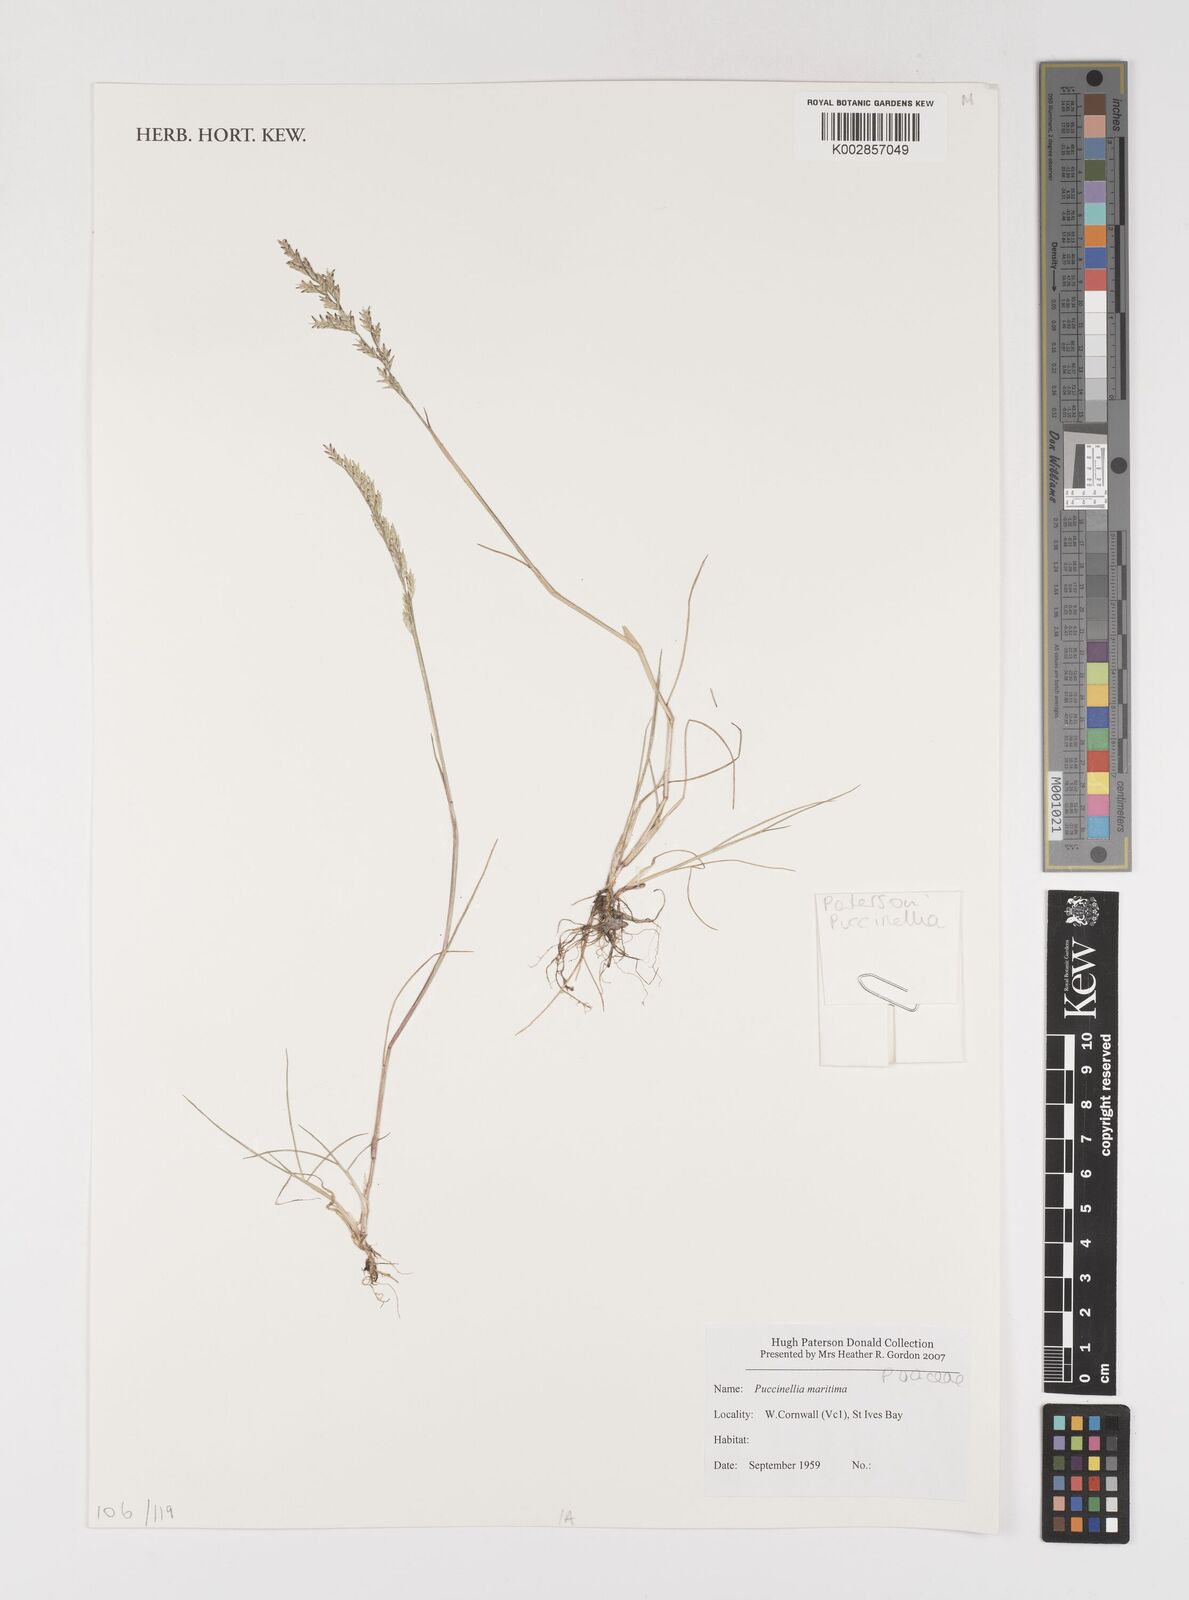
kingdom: Plantae
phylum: Tracheophyta
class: Liliopsida
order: Poales
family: Poaceae
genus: Puccinellia
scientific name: Puccinellia maritima
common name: Common saltmarsh grass
